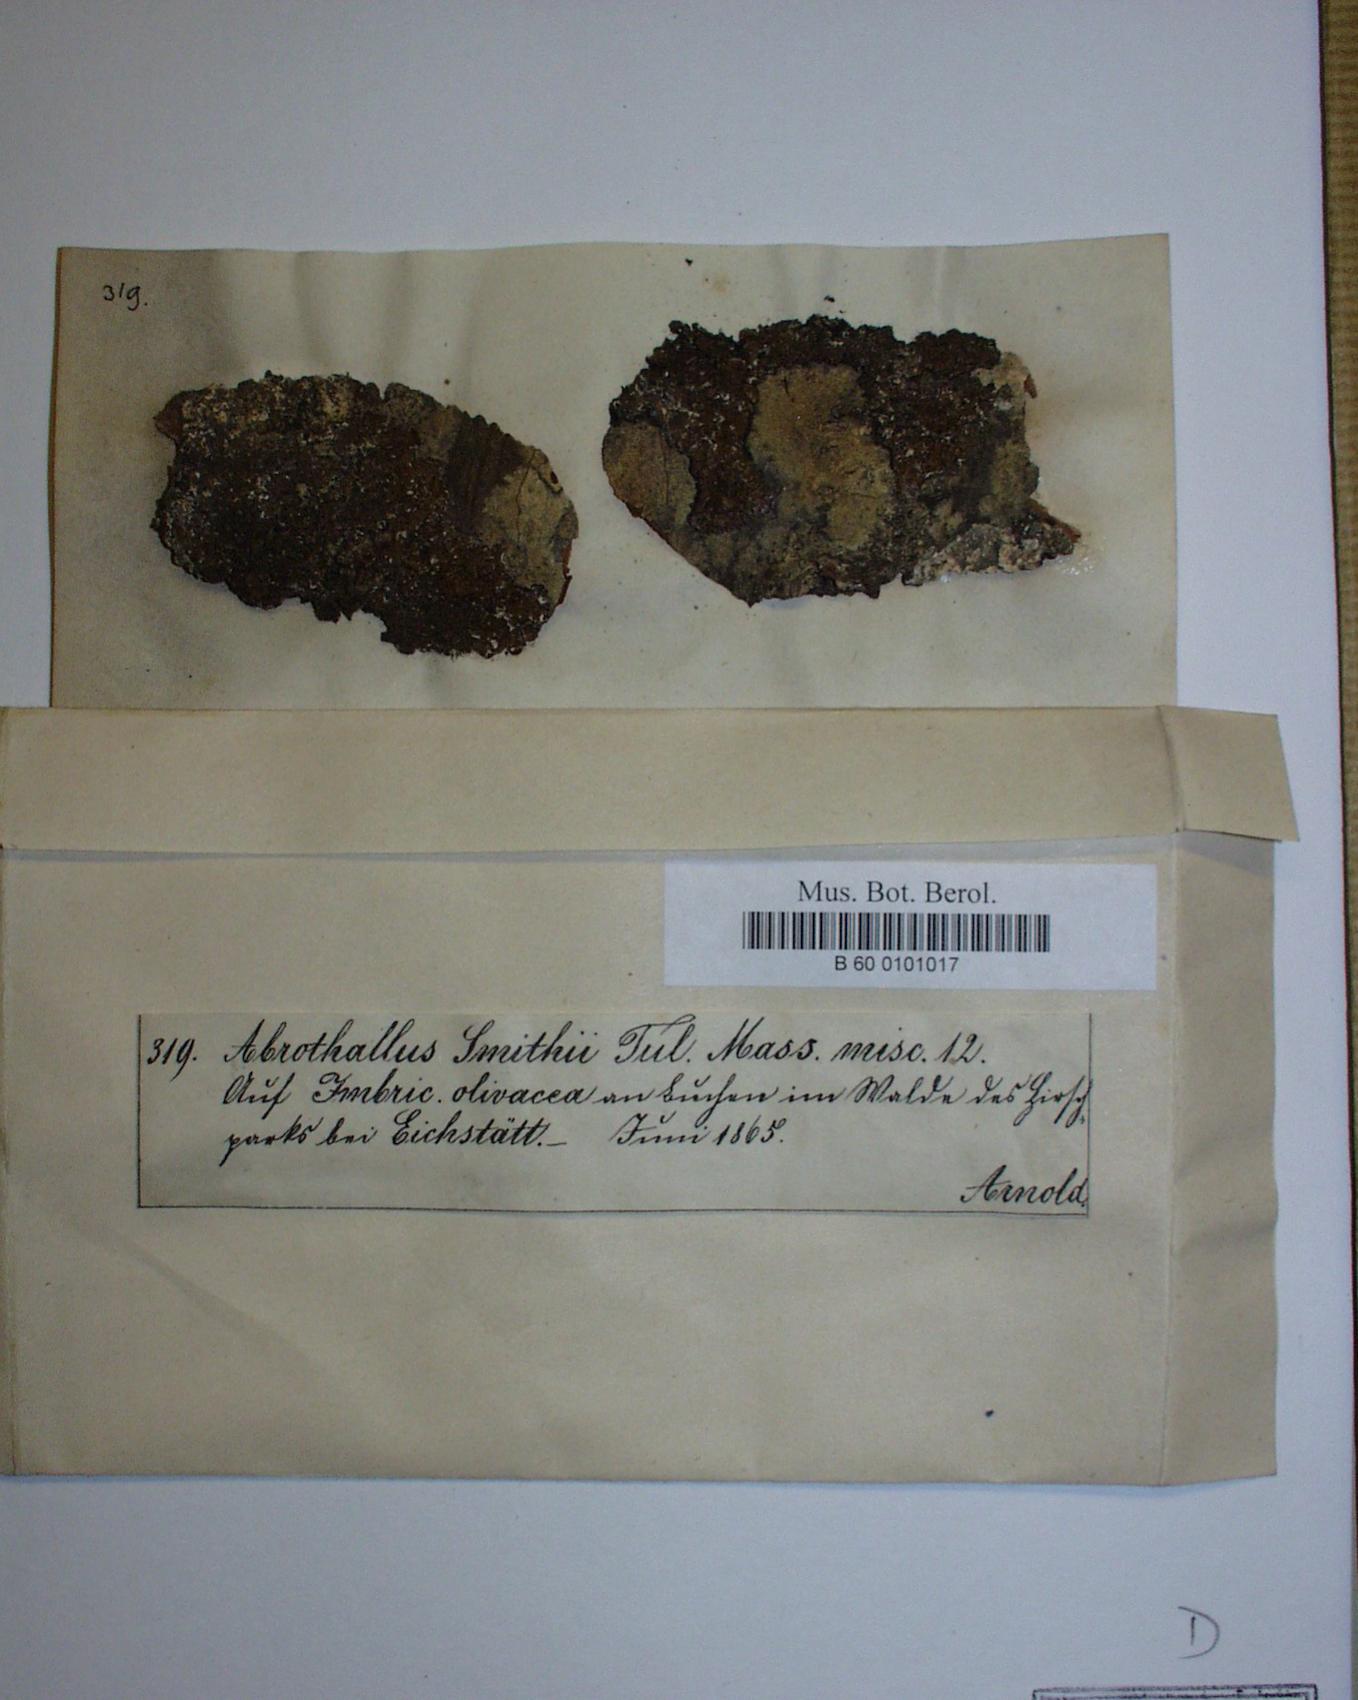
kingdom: Fungi
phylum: Ascomycota
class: Dothideomycetes
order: Abrothallales
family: Abrothallaceae
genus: Abrothallus
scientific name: Abrothallus parmeliarum
